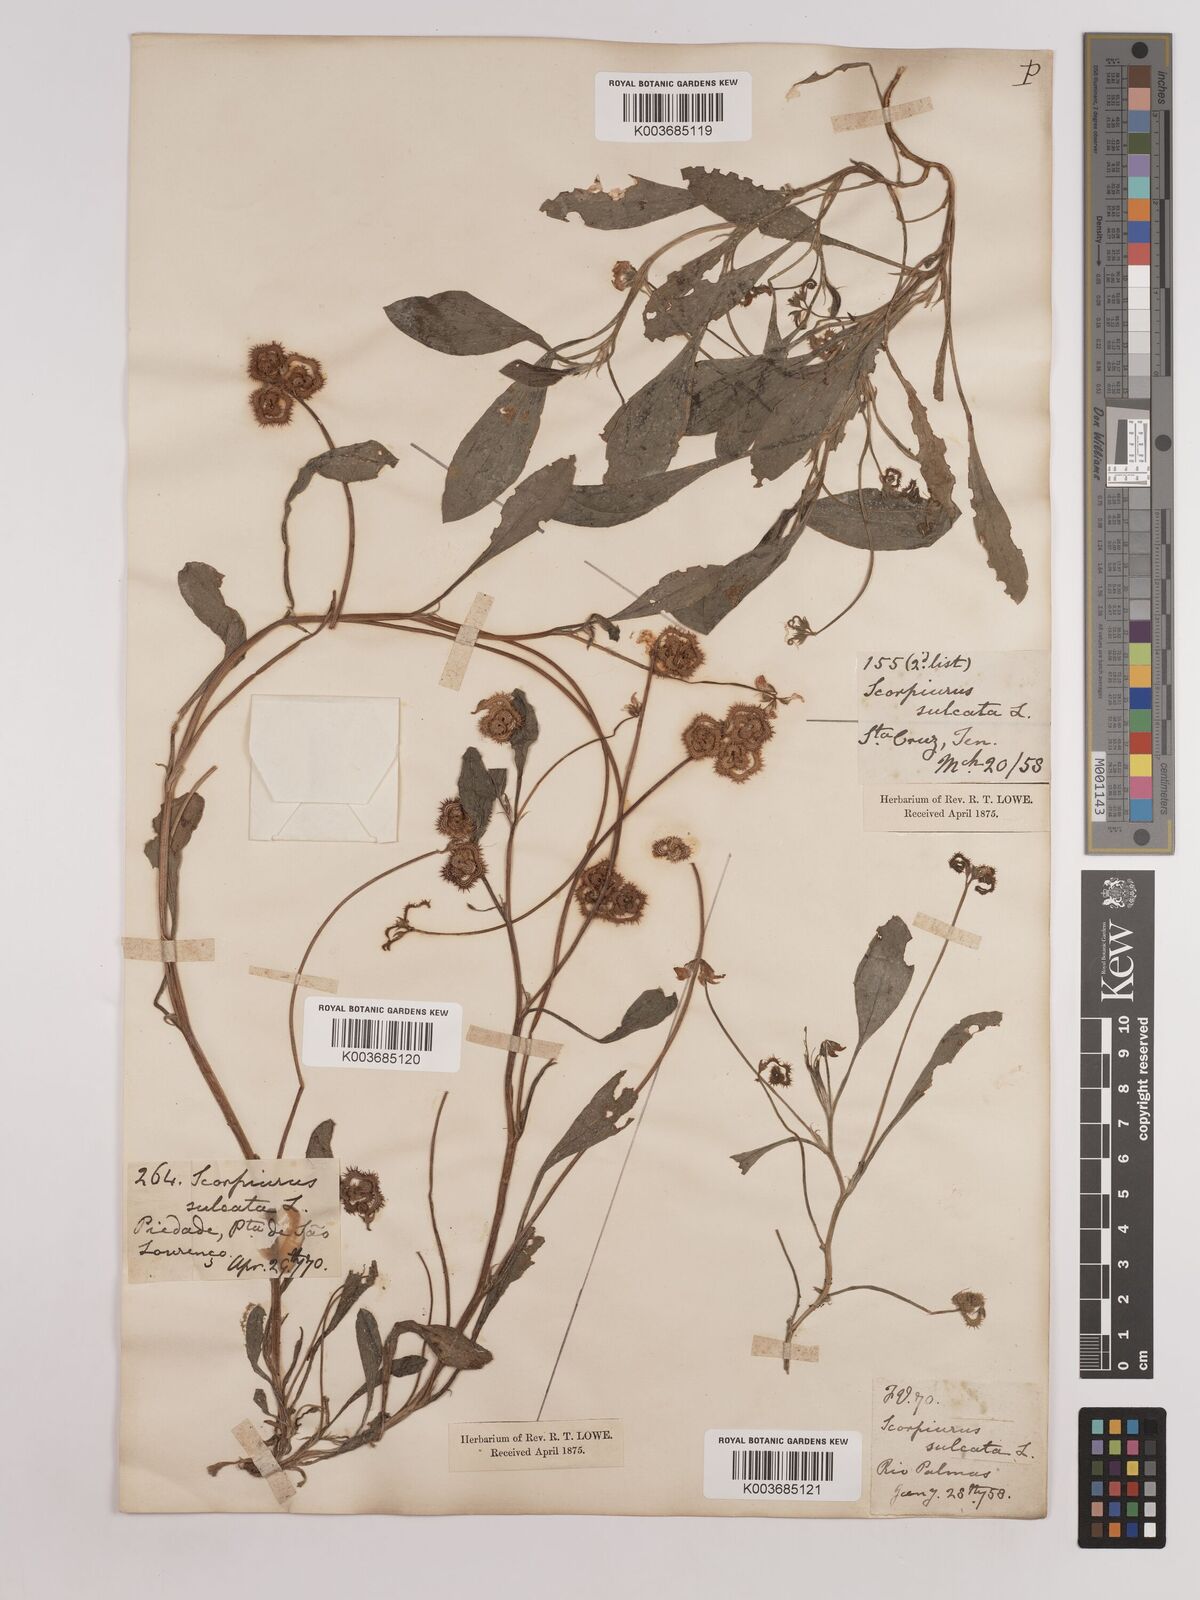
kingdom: Plantae
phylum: Tracheophyta
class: Magnoliopsida
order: Fabales
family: Fabaceae
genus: Scorpiurus
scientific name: Scorpiurus muricatus
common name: Caterpillar-plant
